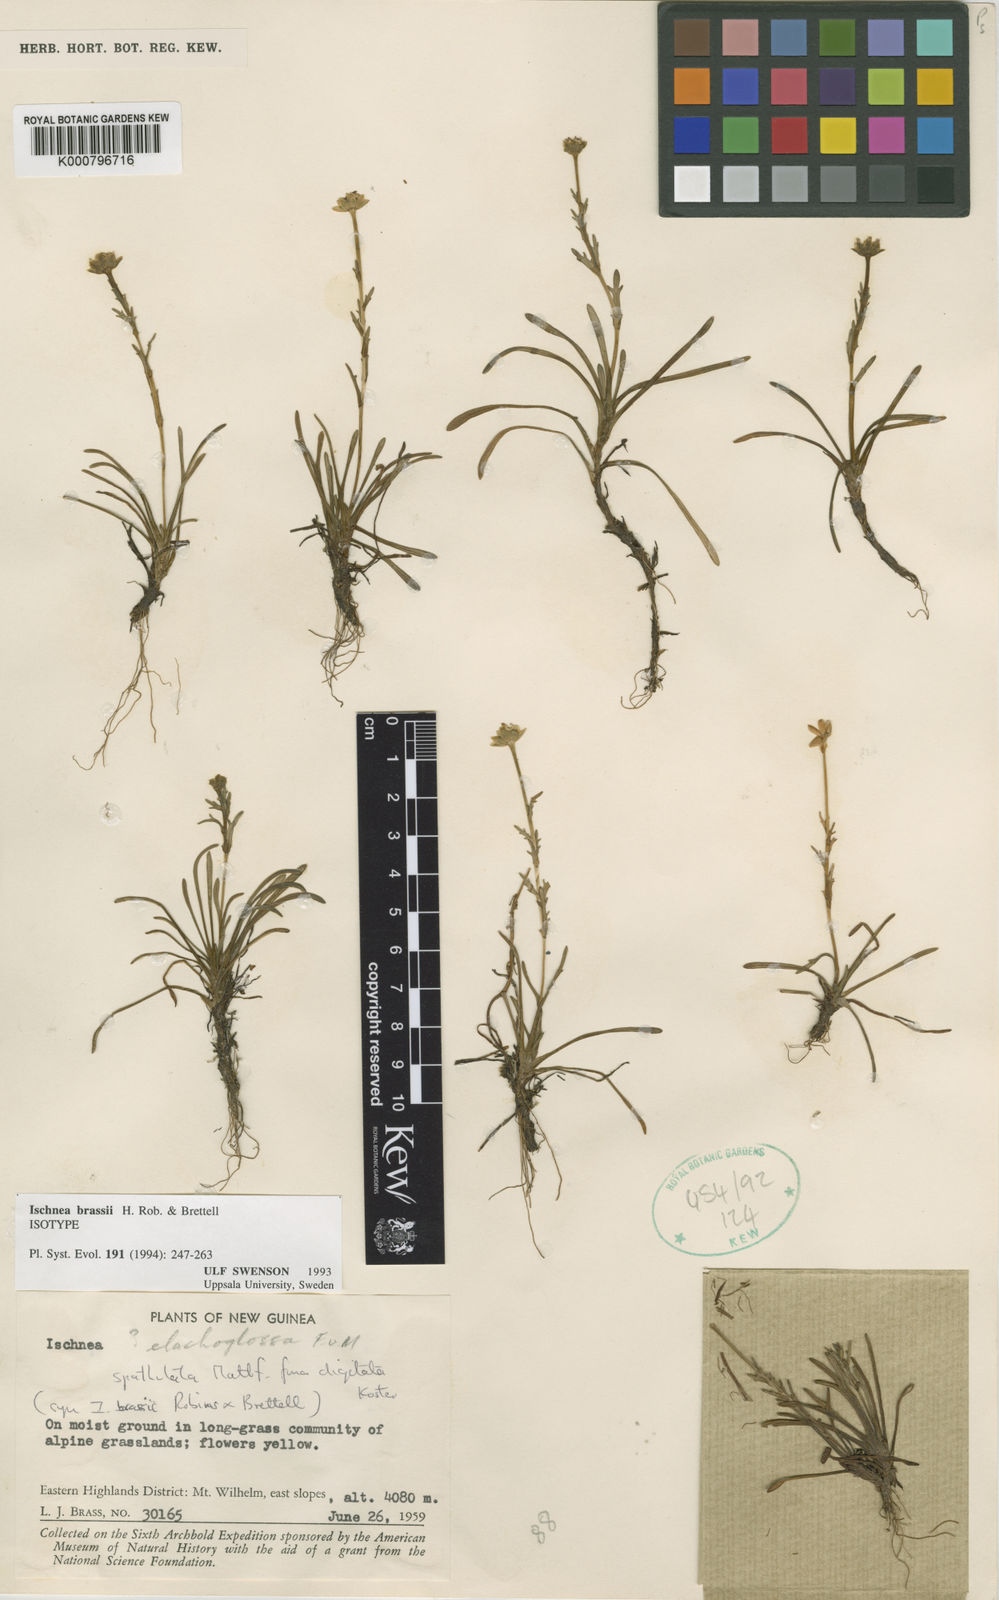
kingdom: Plantae
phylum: Tracheophyta
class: Magnoliopsida
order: Asterales
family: Asteraceae
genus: Ischnea
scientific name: Ischnea brassii
